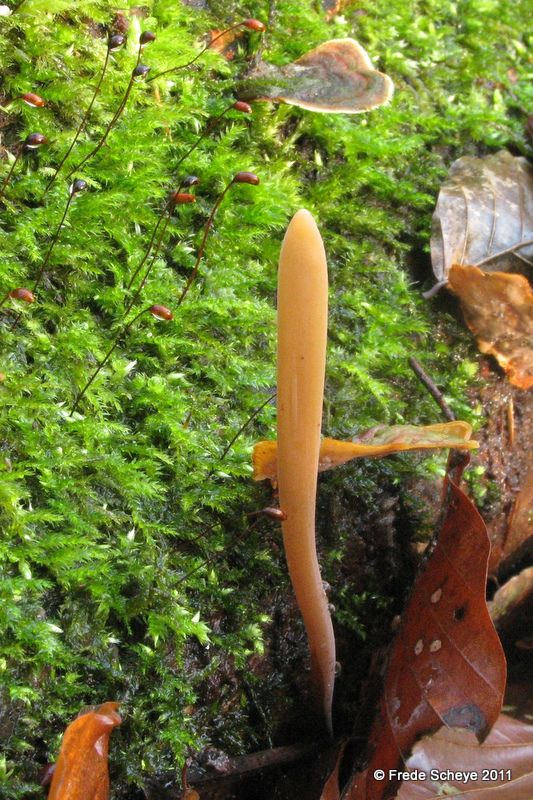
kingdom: Fungi
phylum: Basidiomycota
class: Agaricomycetes
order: Agaricales
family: Typhulaceae
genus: Typhula
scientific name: Typhula fistulosa
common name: pibet rørkølle
